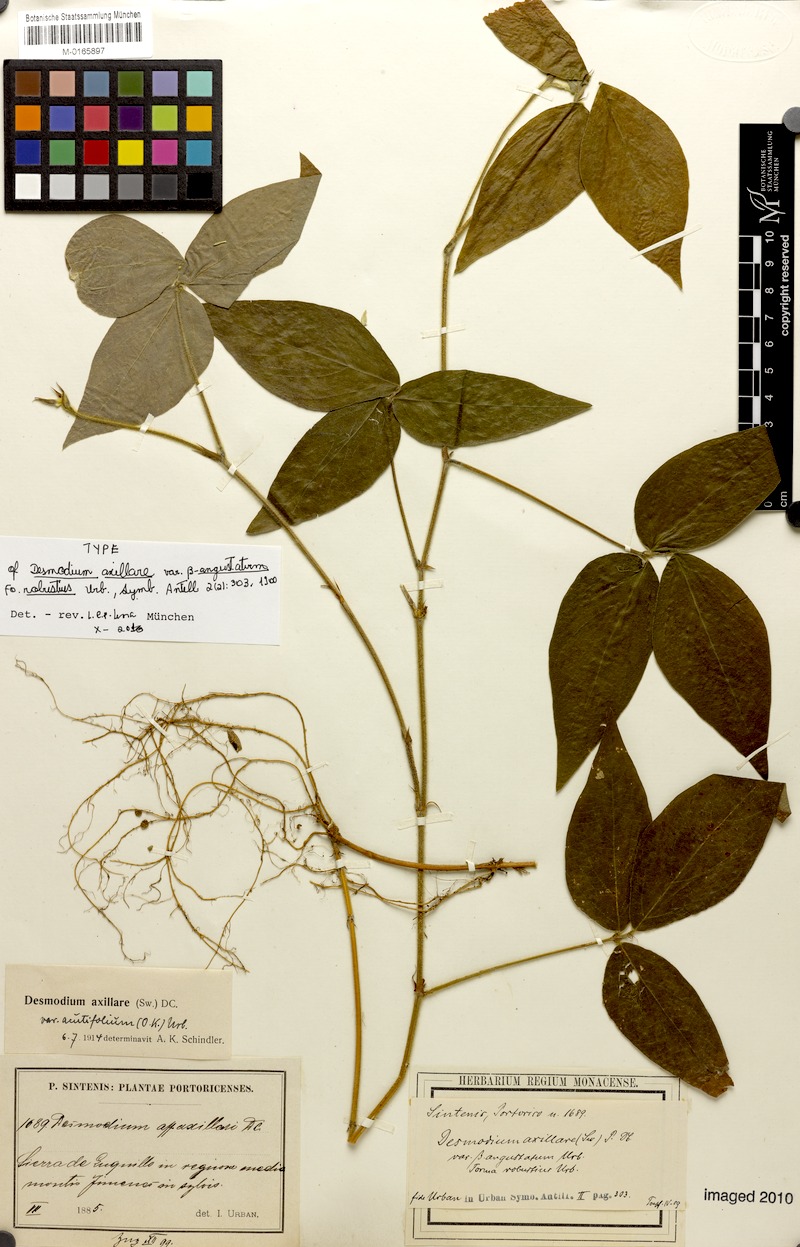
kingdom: Plantae
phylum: Tracheophyta
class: Magnoliopsida
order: Fabales
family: Fabaceae
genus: Desmodium
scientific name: Desmodium axillare
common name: Wire with
